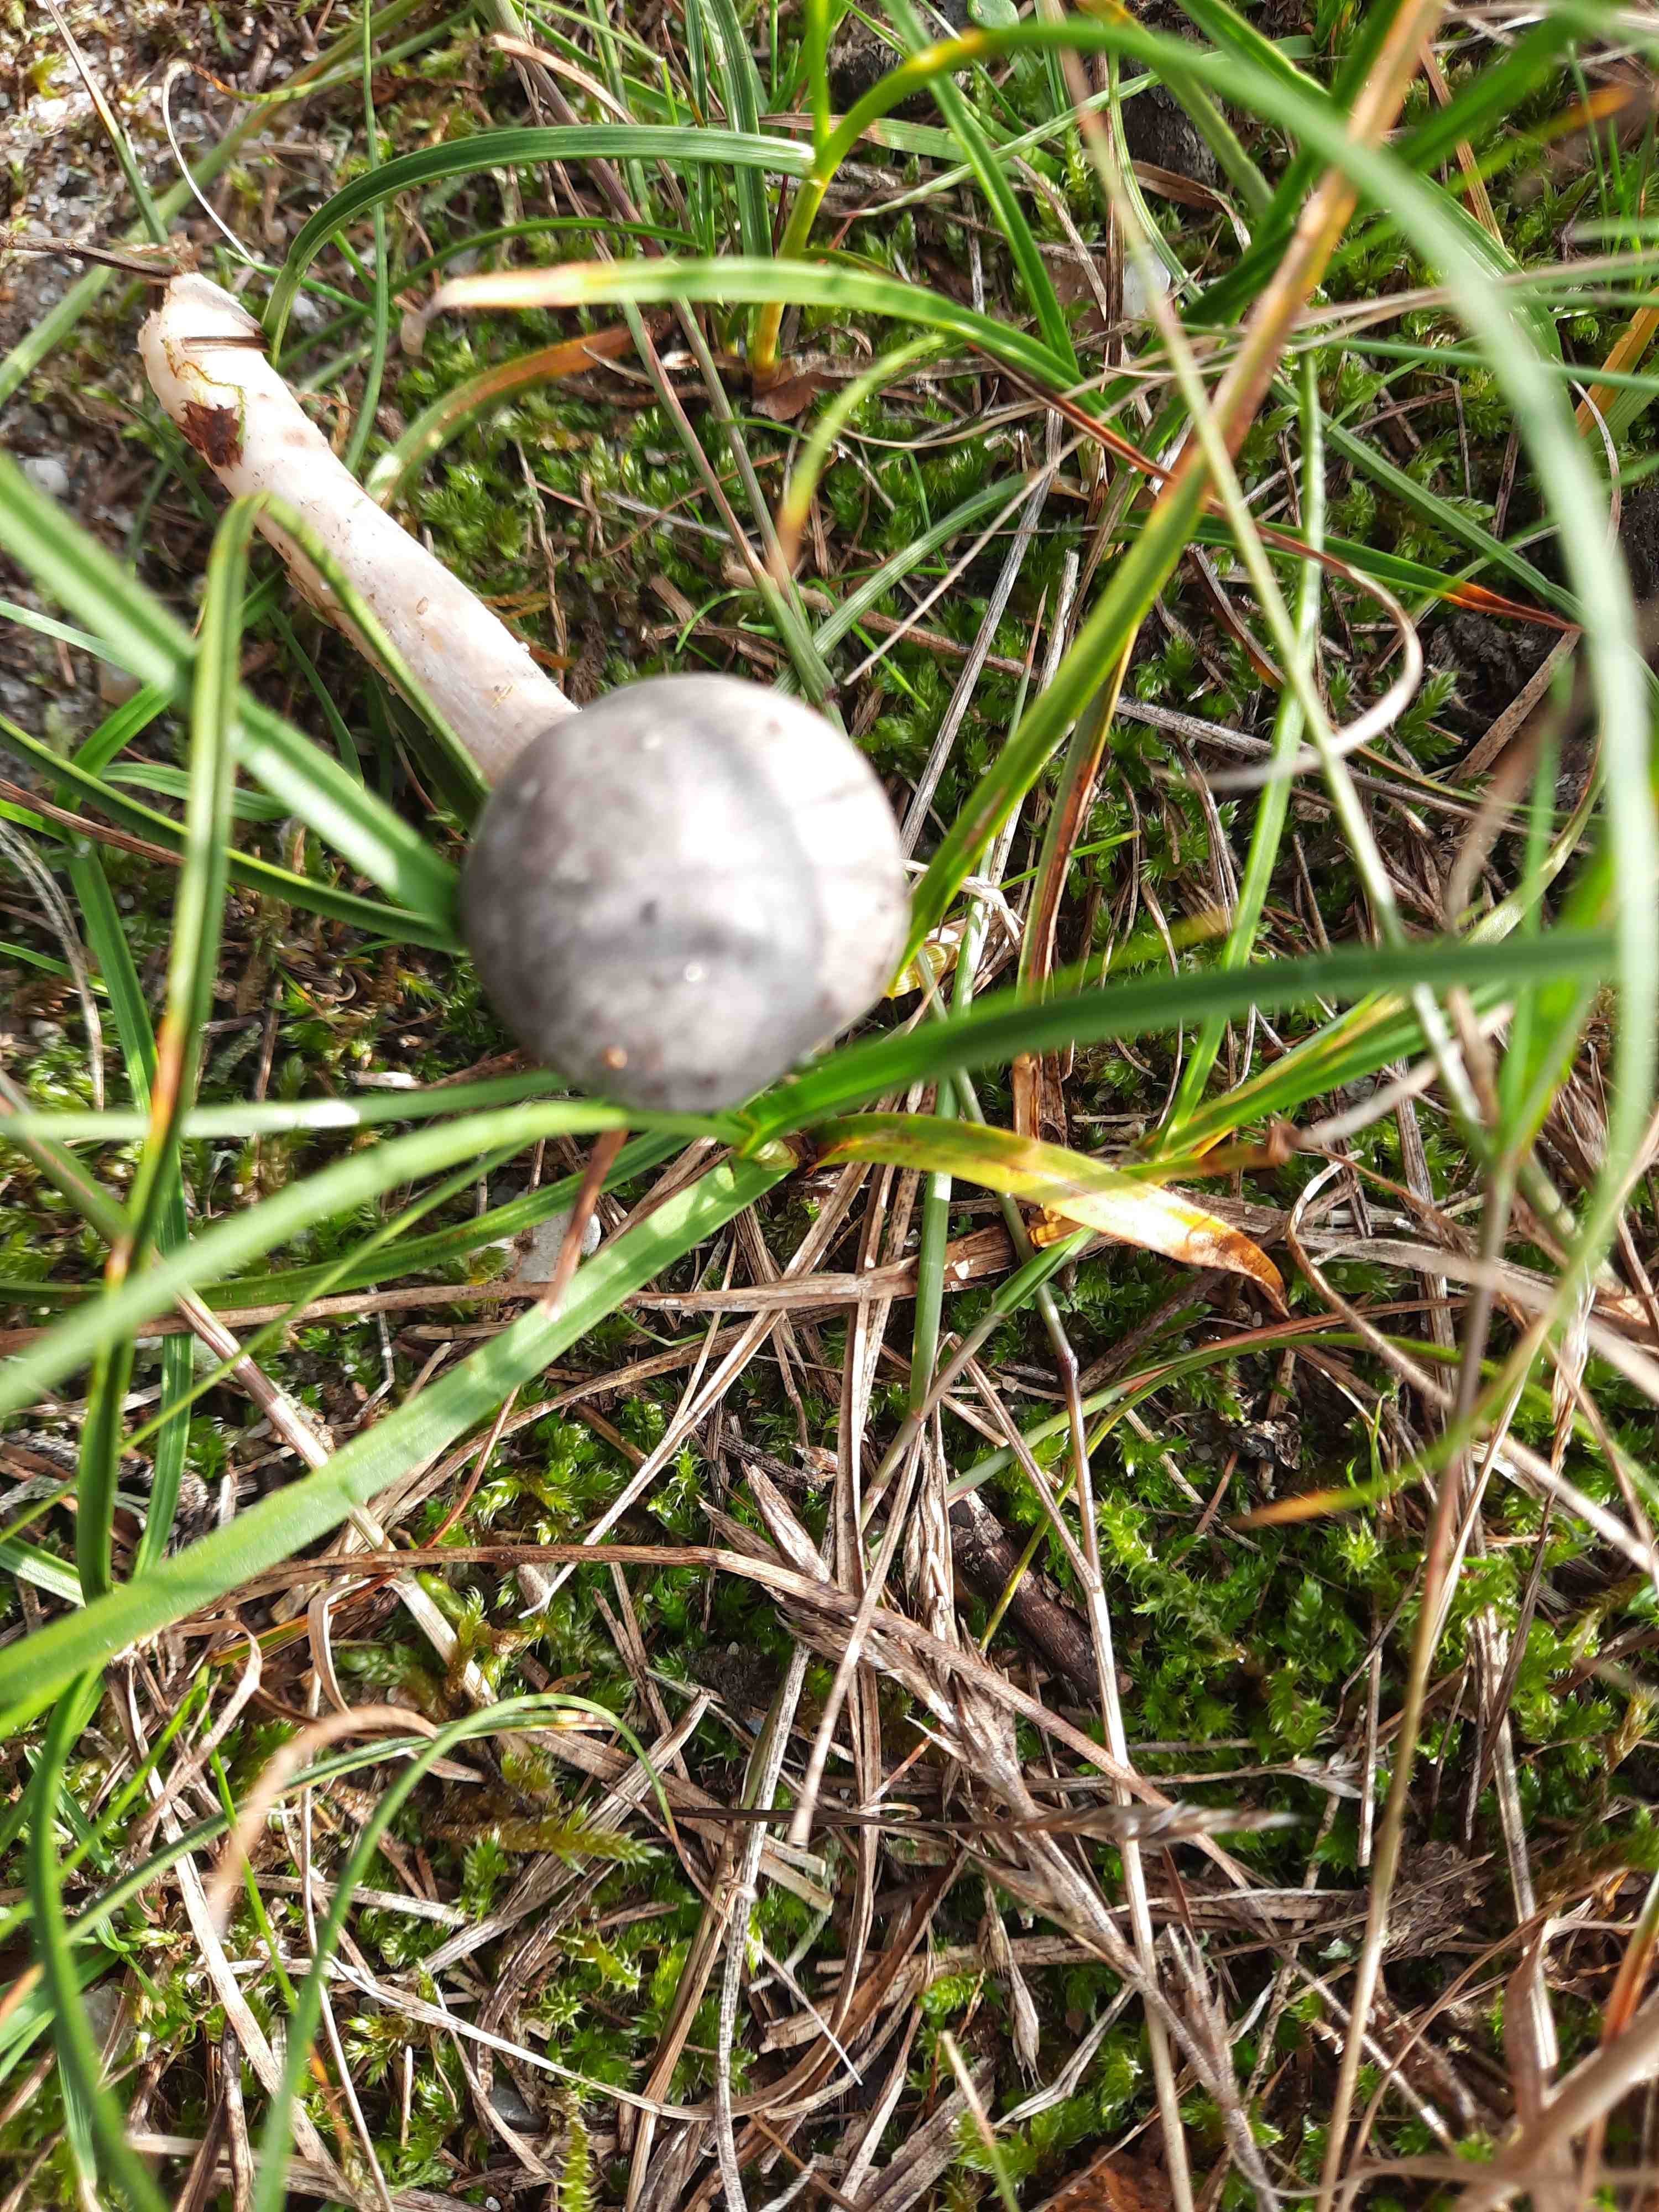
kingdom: Fungi
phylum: Basidiomycota
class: Agaricomycetes
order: Agaricales
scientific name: Agaricales
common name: champignonordenen
